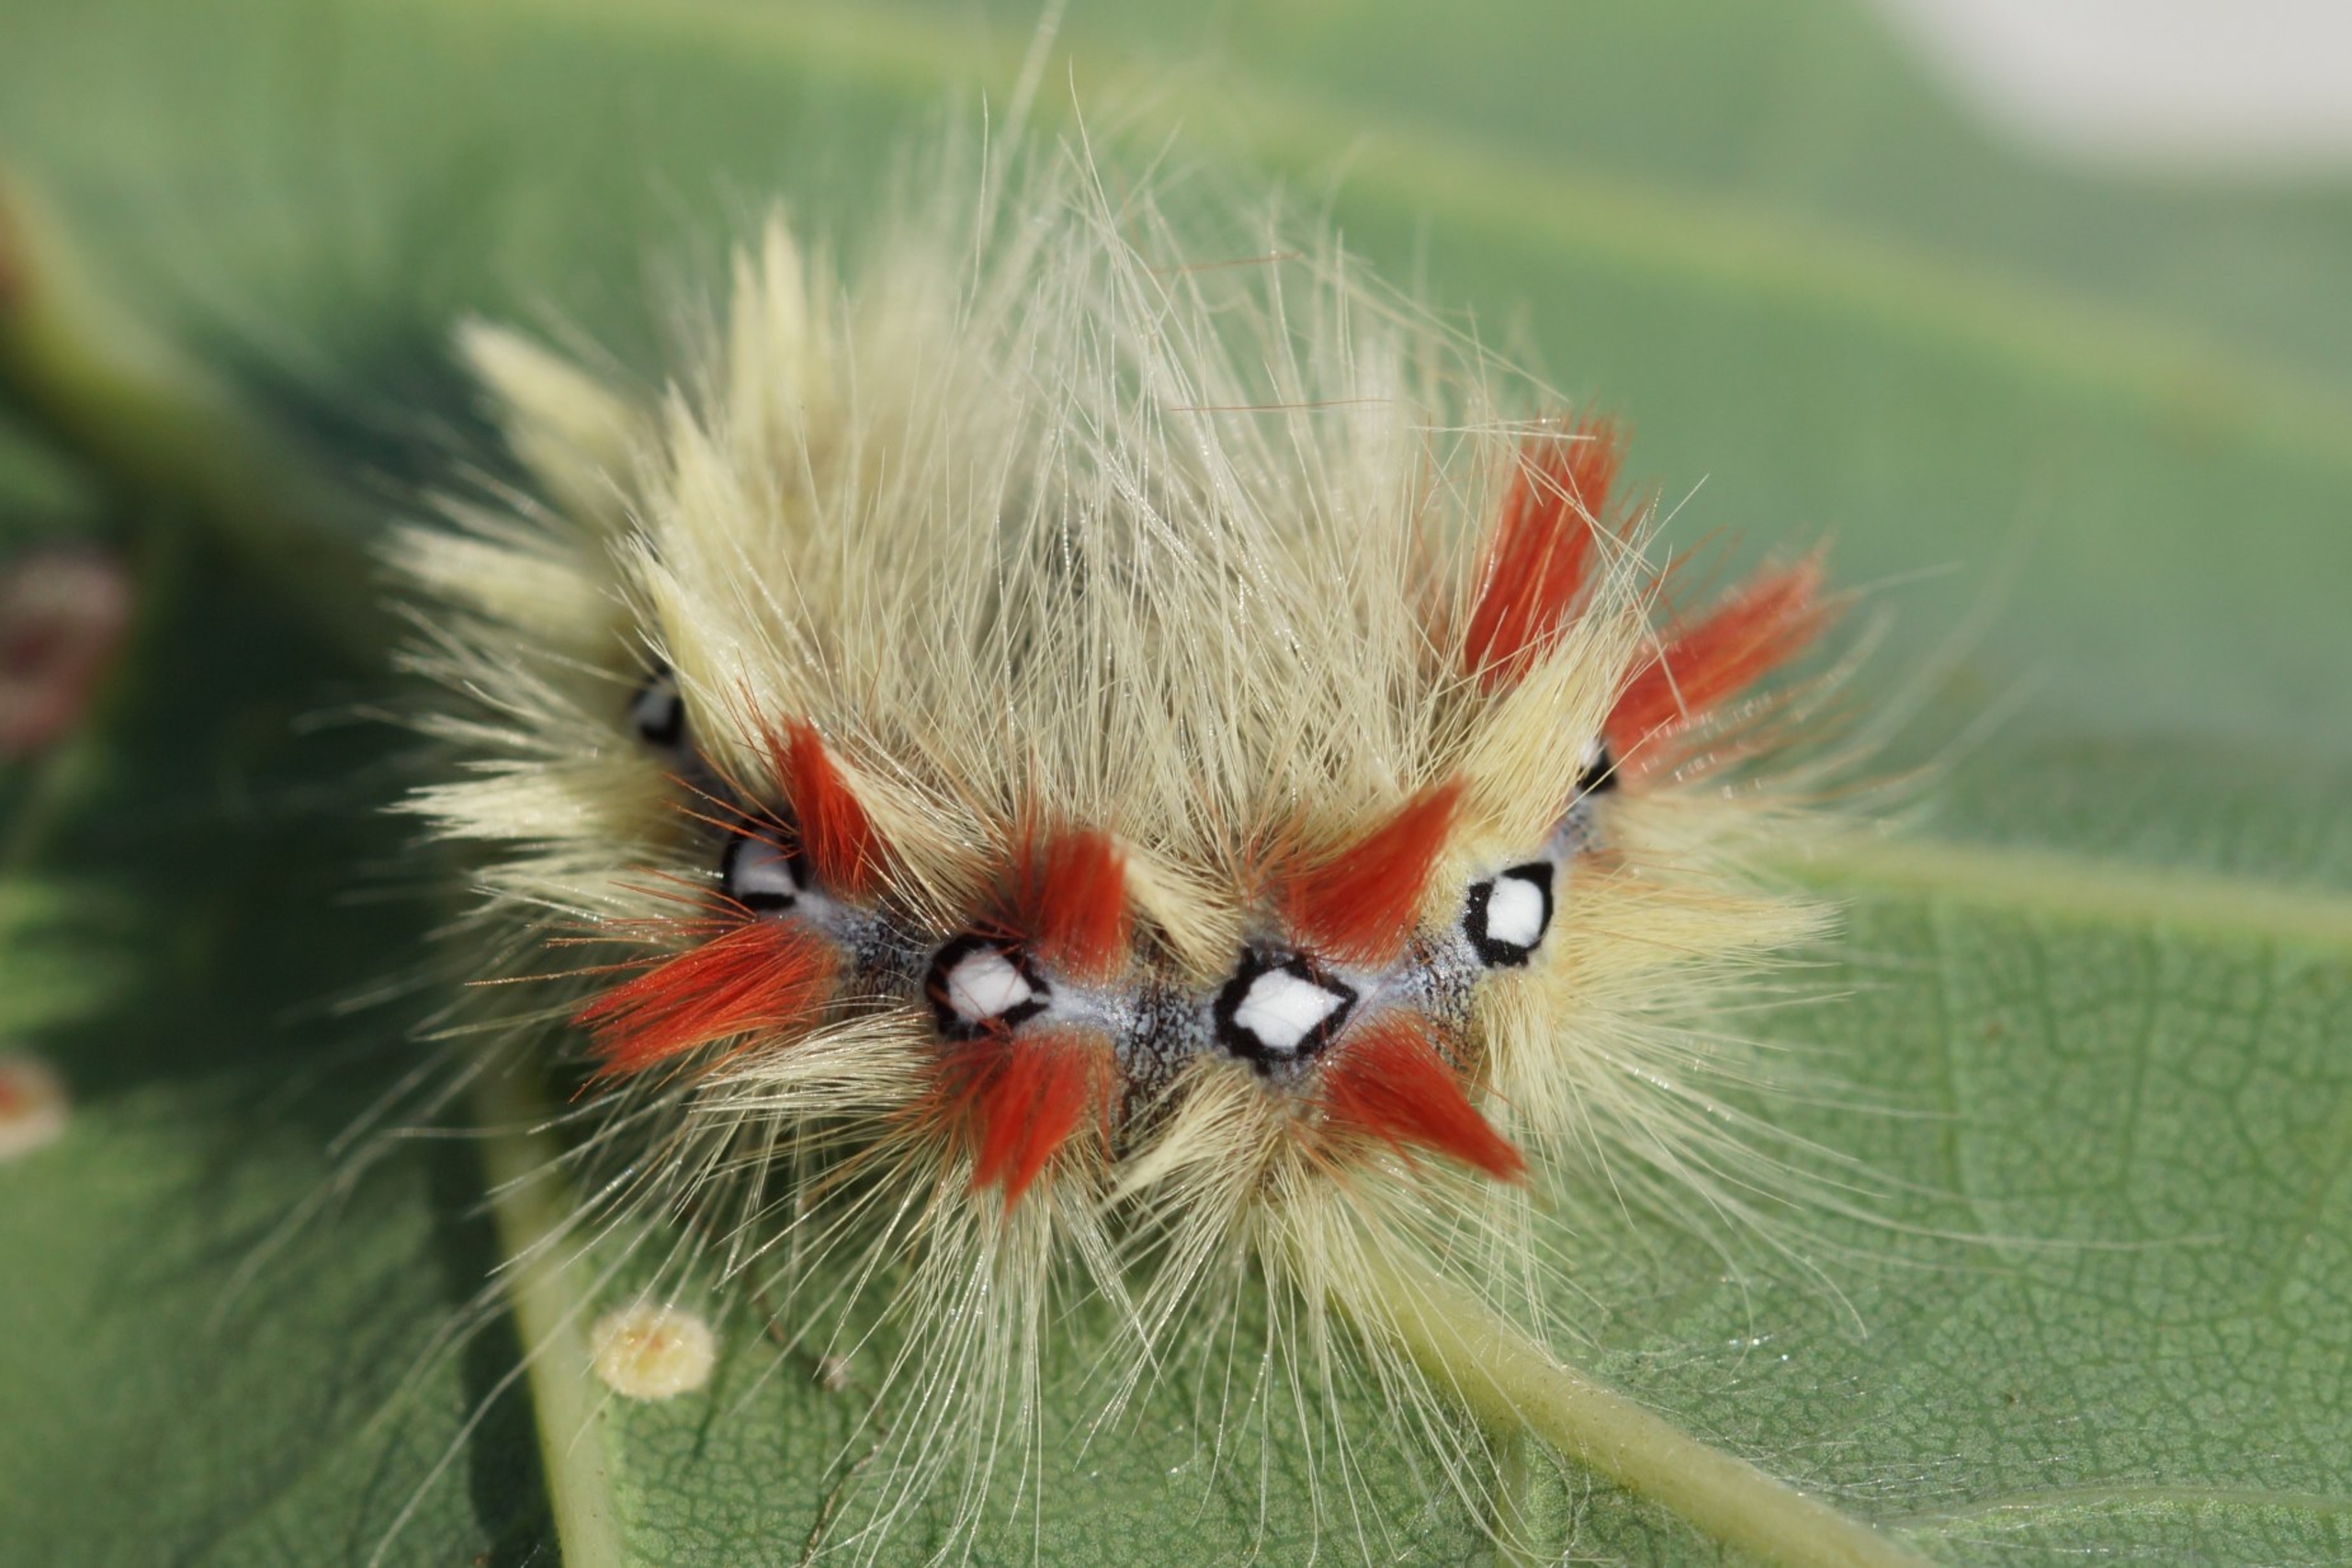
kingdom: Animalia
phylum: Arthropoda
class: Insecta
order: Lepidoptera
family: Noctuidae
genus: Acronicta
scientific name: Acronicta aceris
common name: Ahornugle
